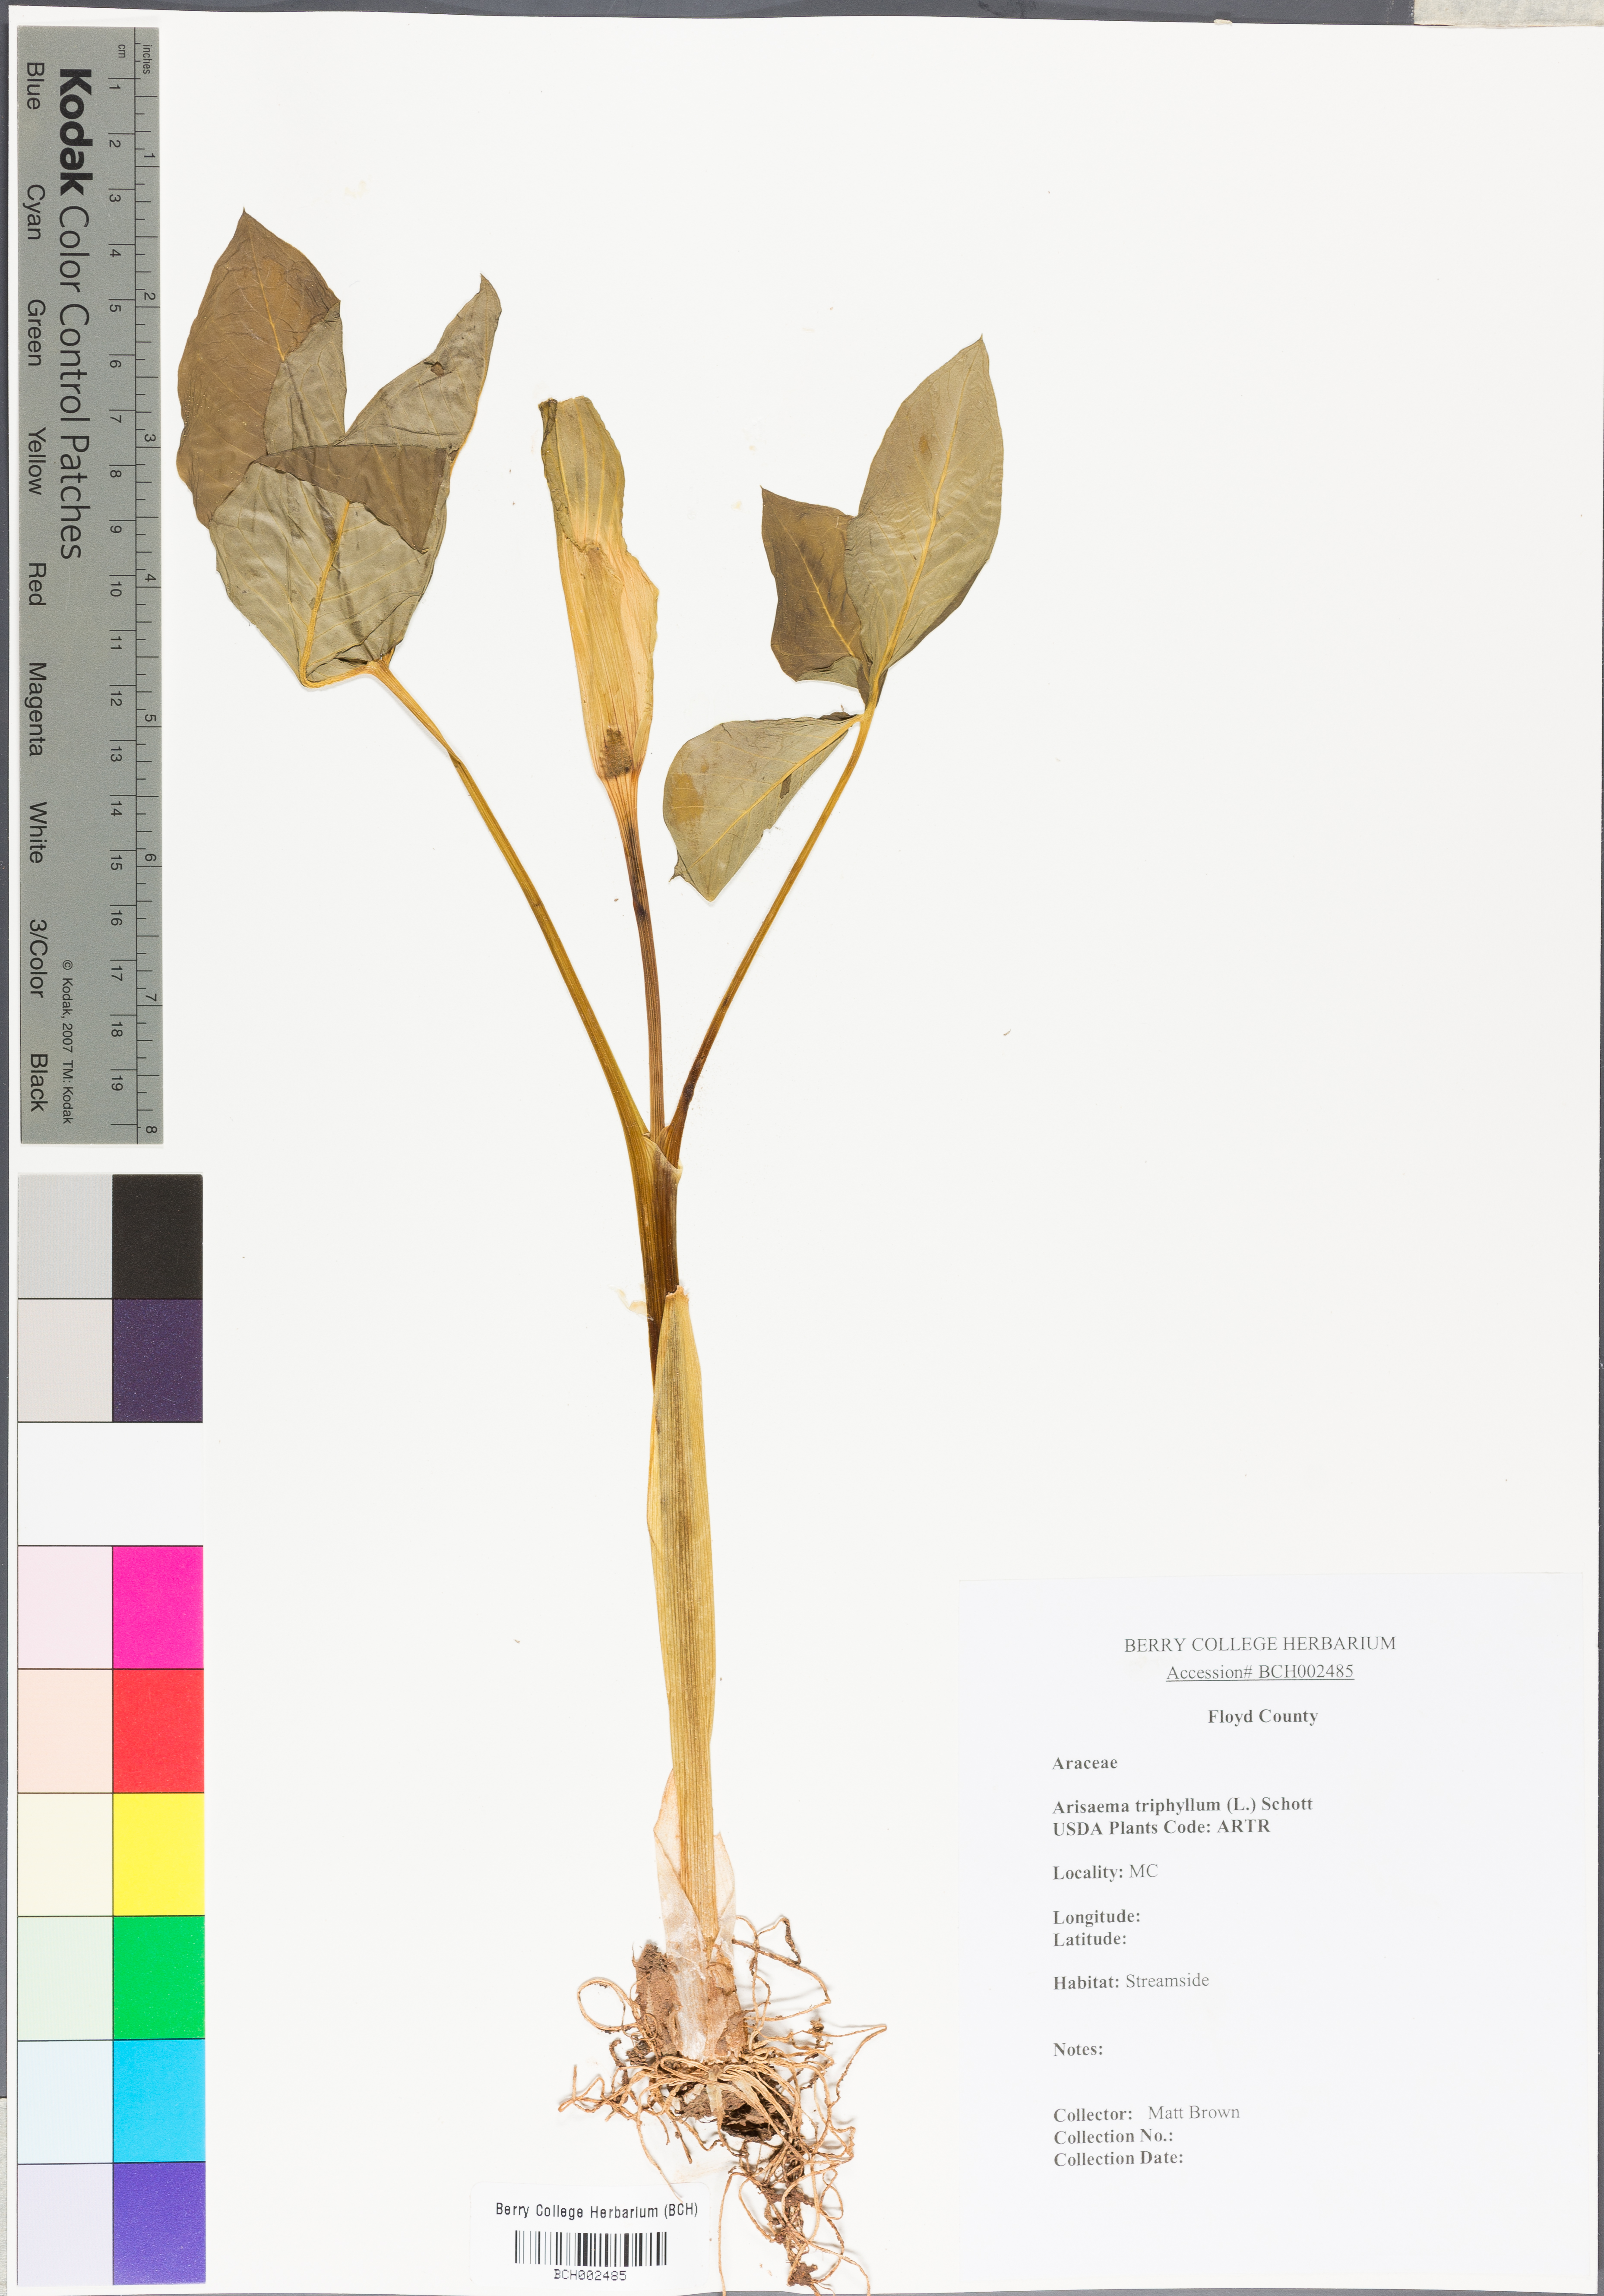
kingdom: Plantae
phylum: Tracheophyta
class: Liliopsida
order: Alismatales
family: Araceae
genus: Arisaema
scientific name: Arisaema triphyllum
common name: Jack-in-the-pulpit
